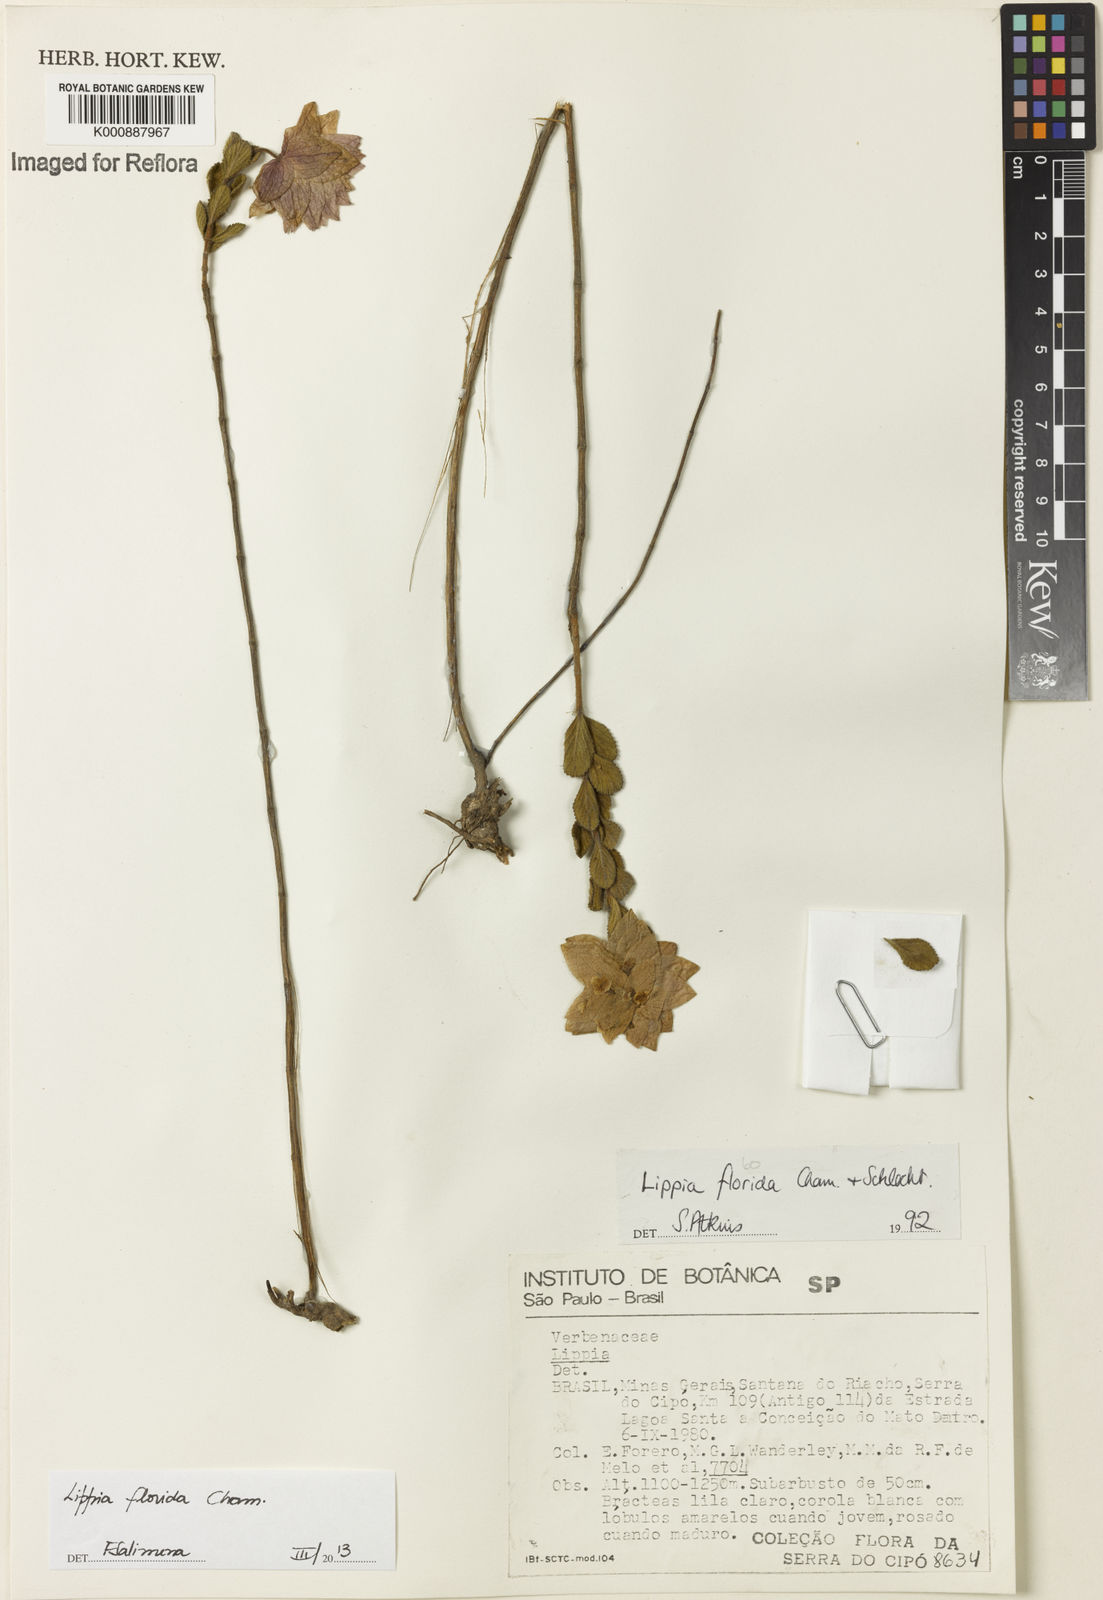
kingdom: Plantae
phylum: Tracheophyta
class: Magnoliopsida
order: Lamiales
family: Verbenaceae
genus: Lippia
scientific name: Lippia florida
